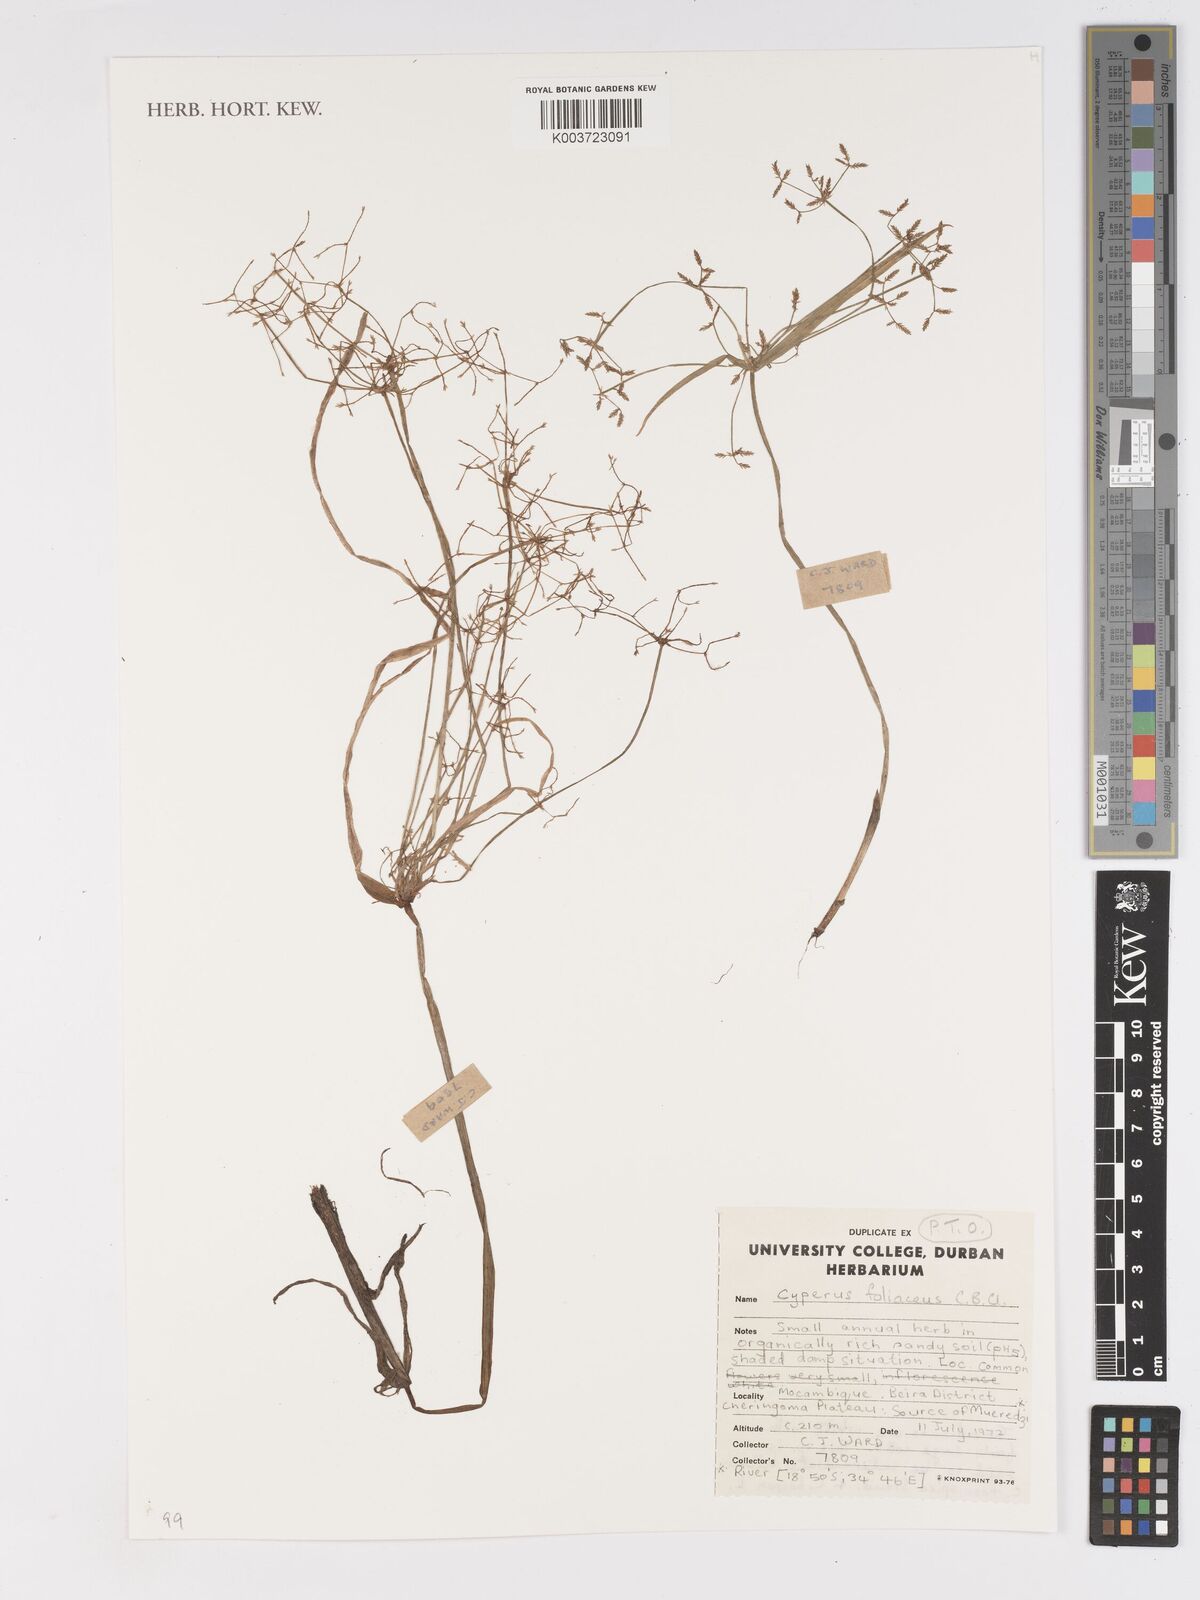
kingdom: Plantae
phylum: Tracheophyta
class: Liliopsida
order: Poales
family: Cyperaceae
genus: Cyperus
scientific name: Cyperus foliaceus
